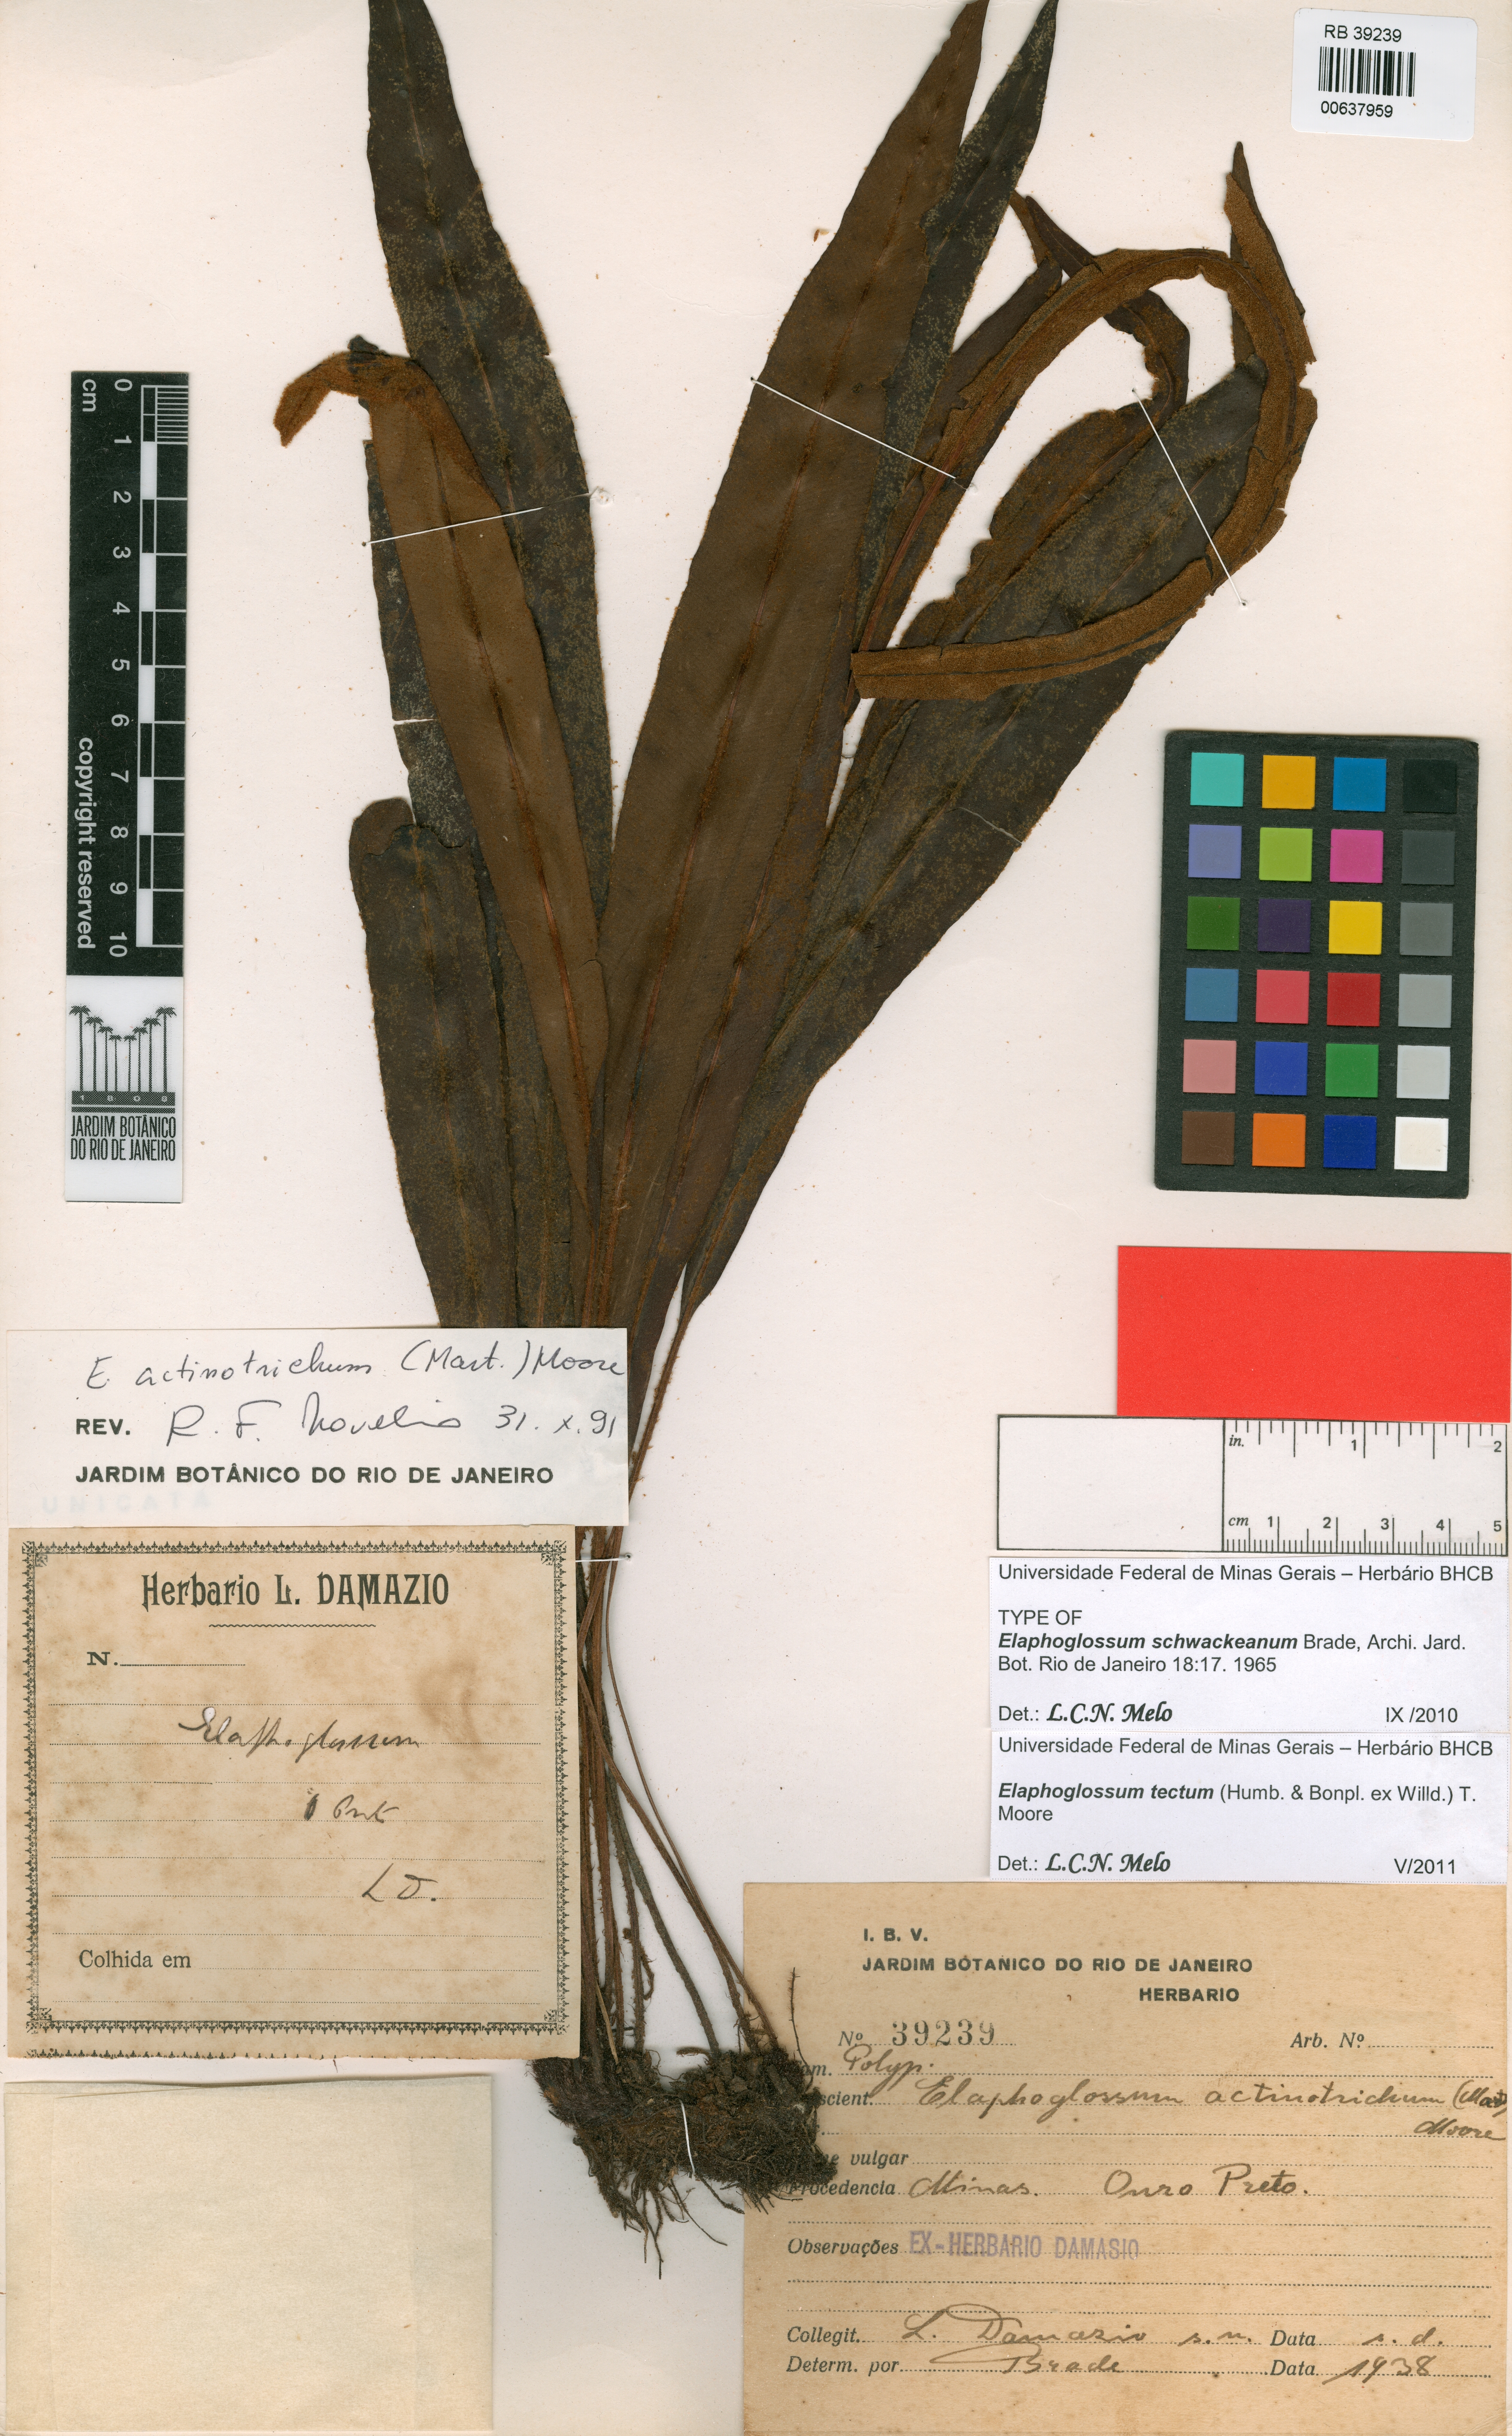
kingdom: Plantae
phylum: Tracheophyta
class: Polypodiopsida
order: Polypodiales
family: Dryopteridaceae
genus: Elaphoglossum
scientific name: Elaphoglossum schwackeanum
